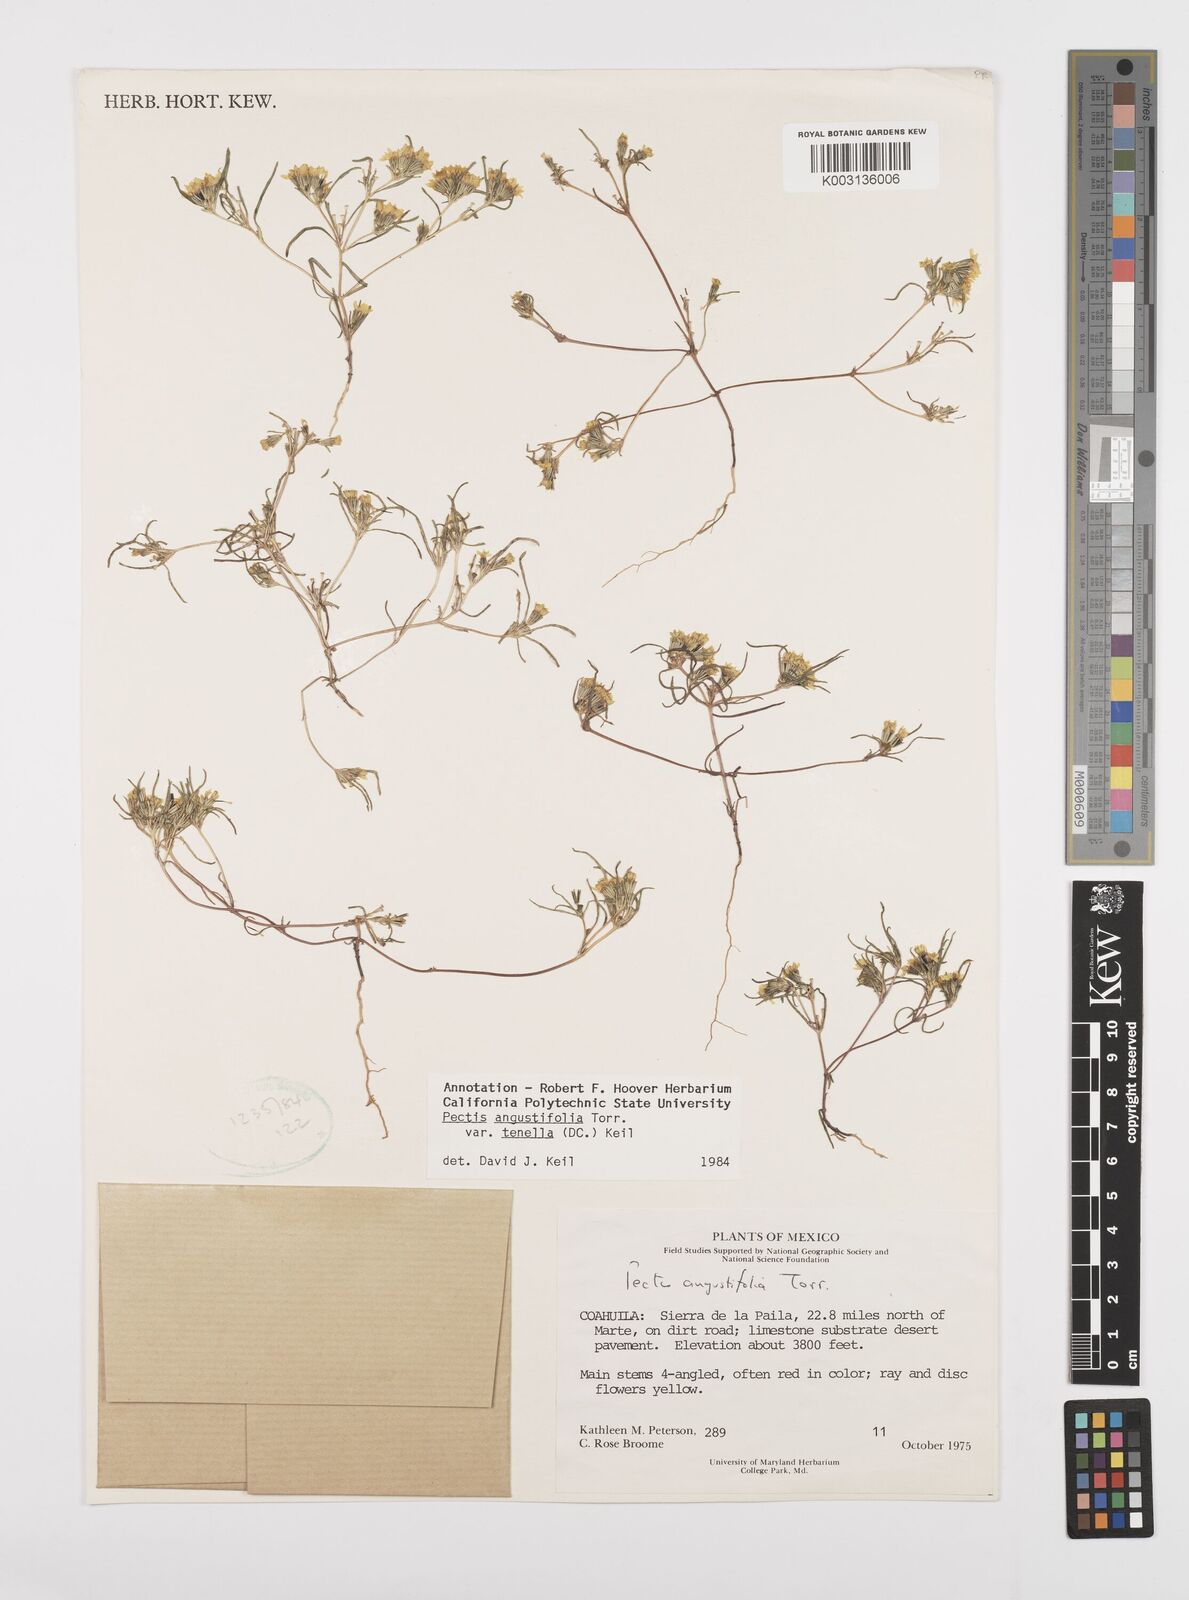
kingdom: Plantae
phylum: Tracheophyta
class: Magnoliopsida
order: Asterales
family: Asteraceae
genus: Pectis
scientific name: Pectis angustifolia
